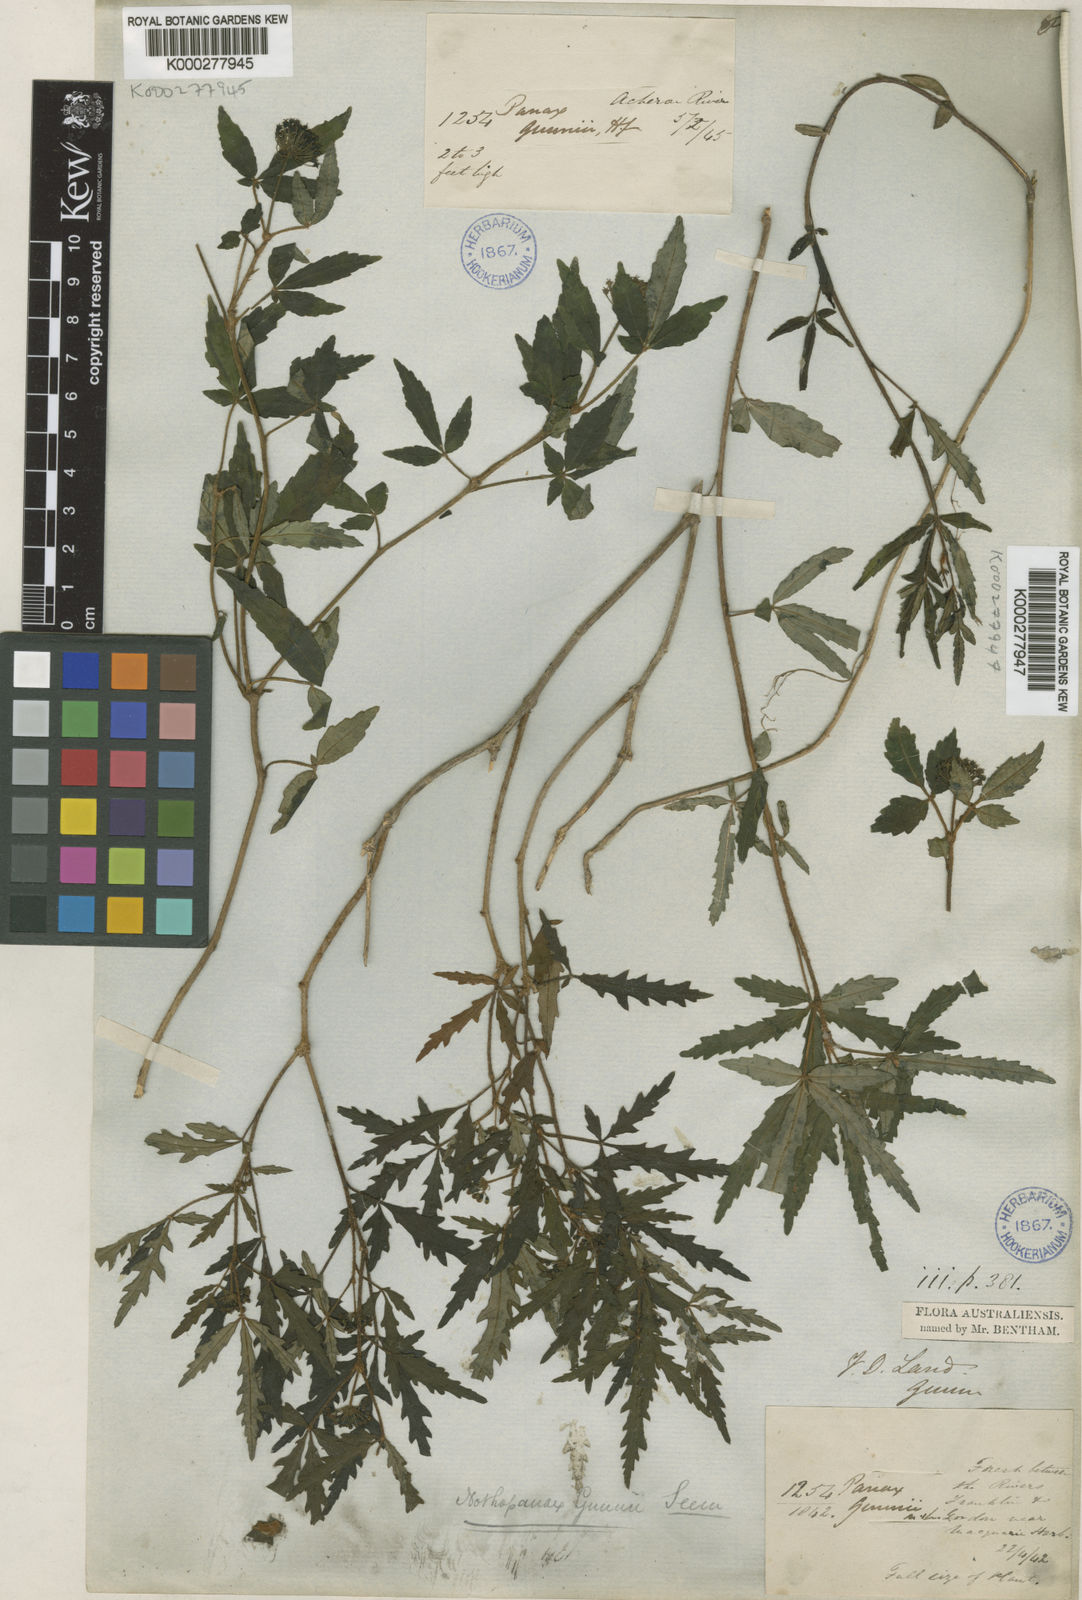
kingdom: Plantae
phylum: Tracheophyta
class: Magnoliopsida
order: Apiales
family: Araliaceae
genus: Raukaua
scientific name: Raukaua gunnii
